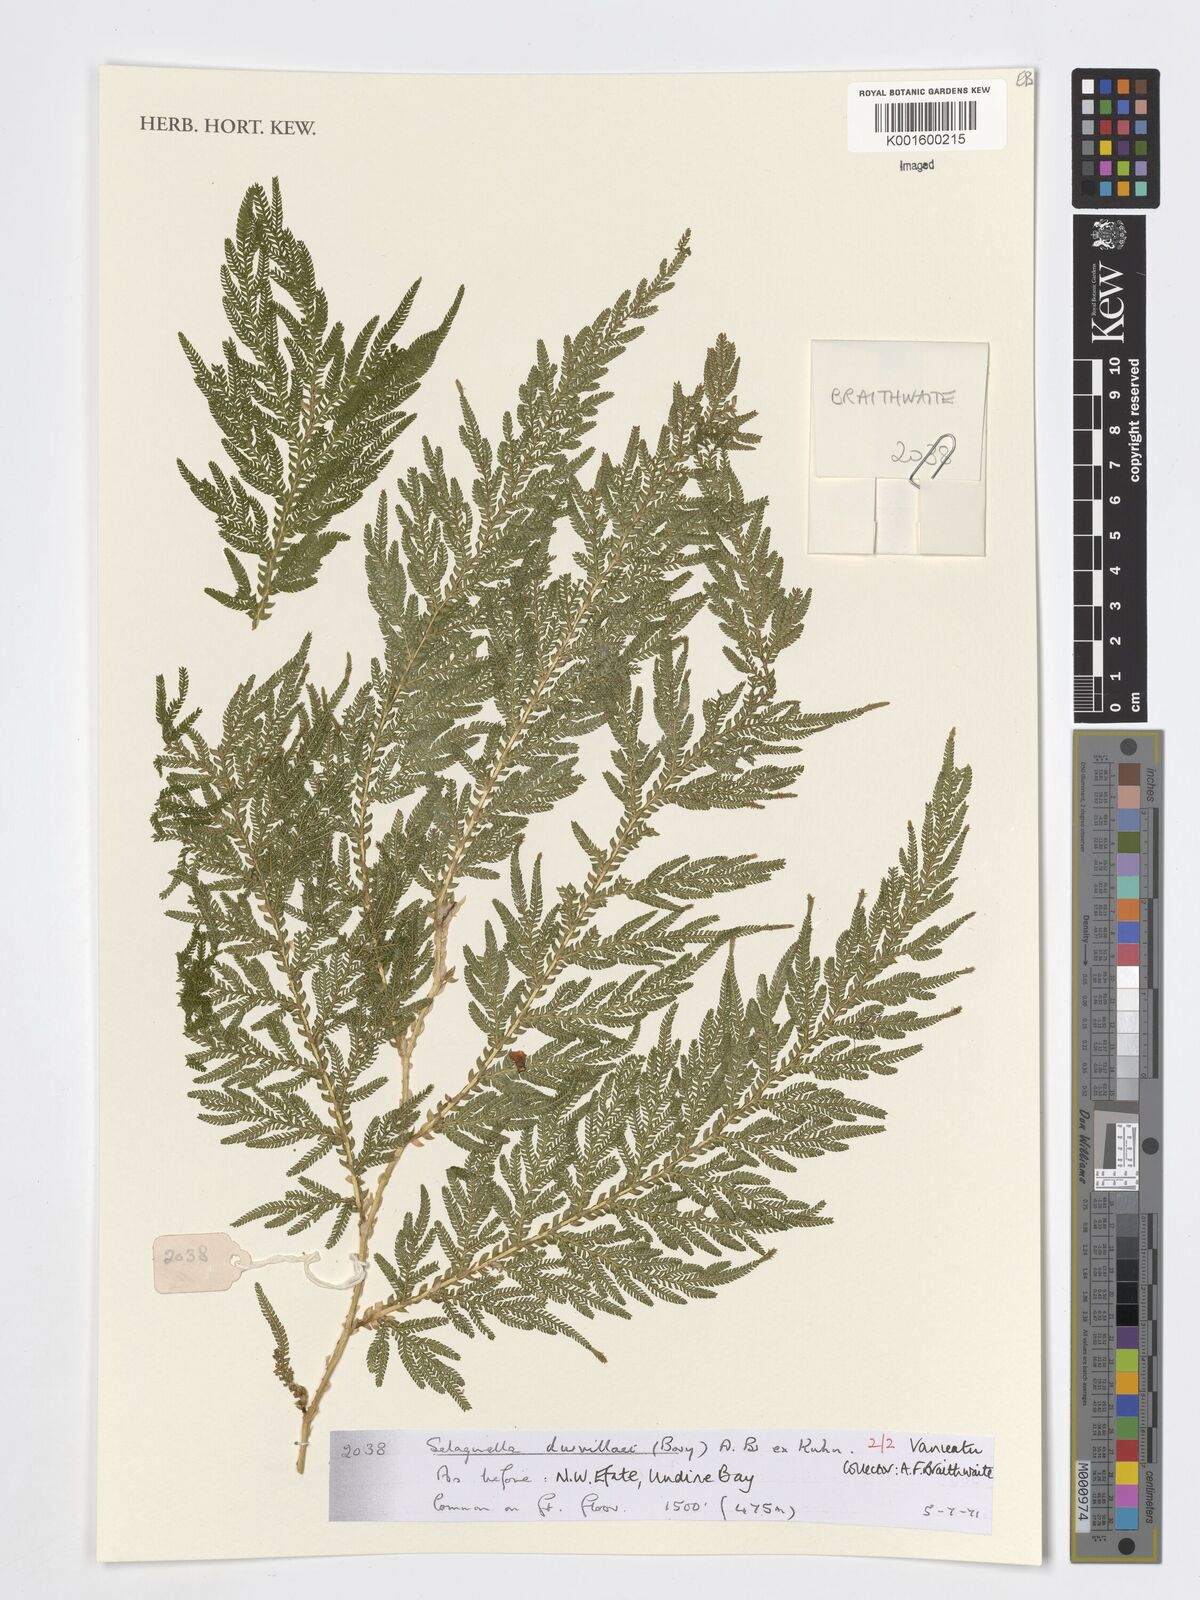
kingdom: Plantae
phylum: Tracheophyta
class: Lycopodiopsida
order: Selaginellales
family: Selaginellaceae
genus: Selaginella
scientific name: Selaginella plana
